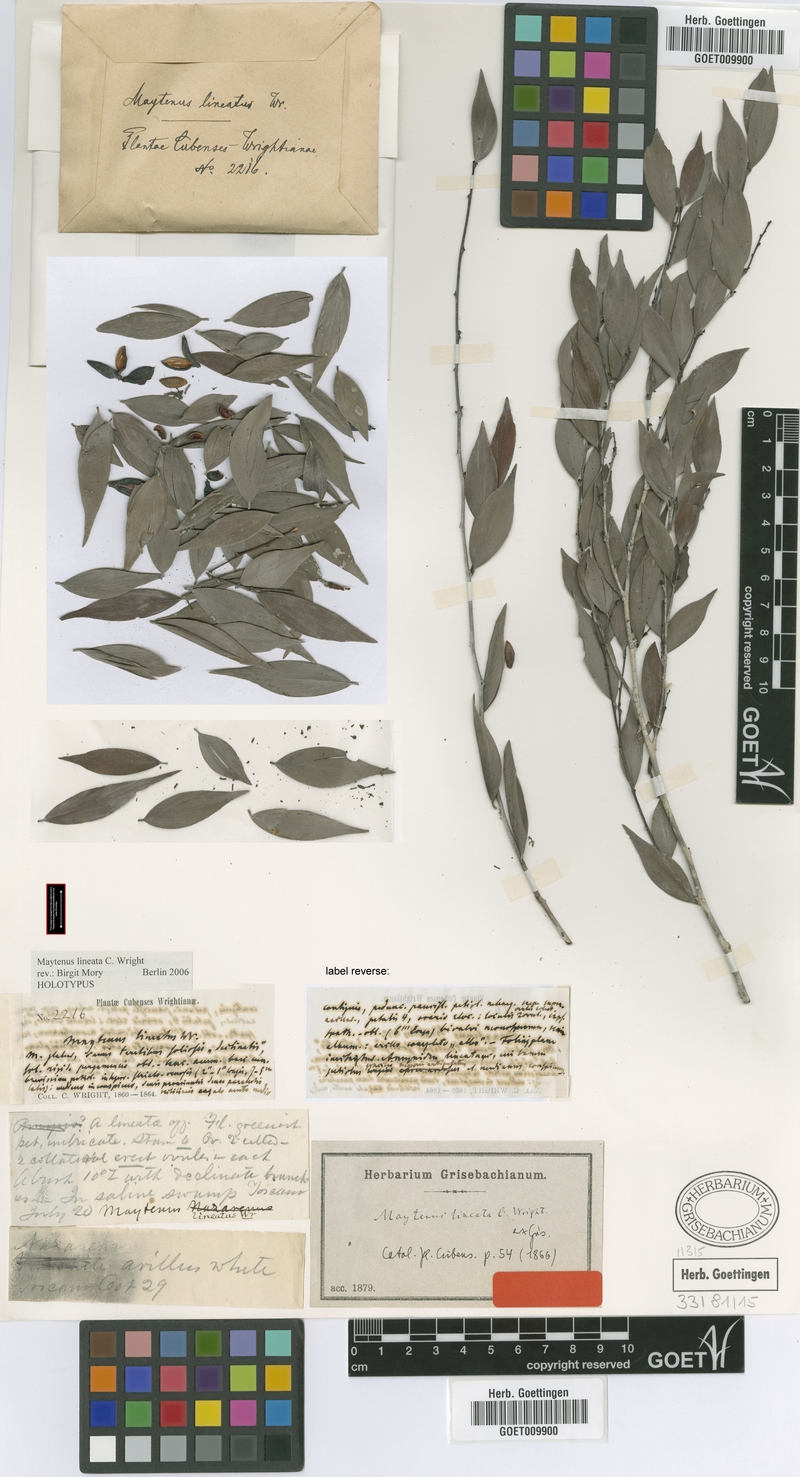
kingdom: Plantae
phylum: Tracheophyta
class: Magnoliopsida
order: Celastrales
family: Celastraceae
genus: Monteverdia
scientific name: Monteverdia lineata
